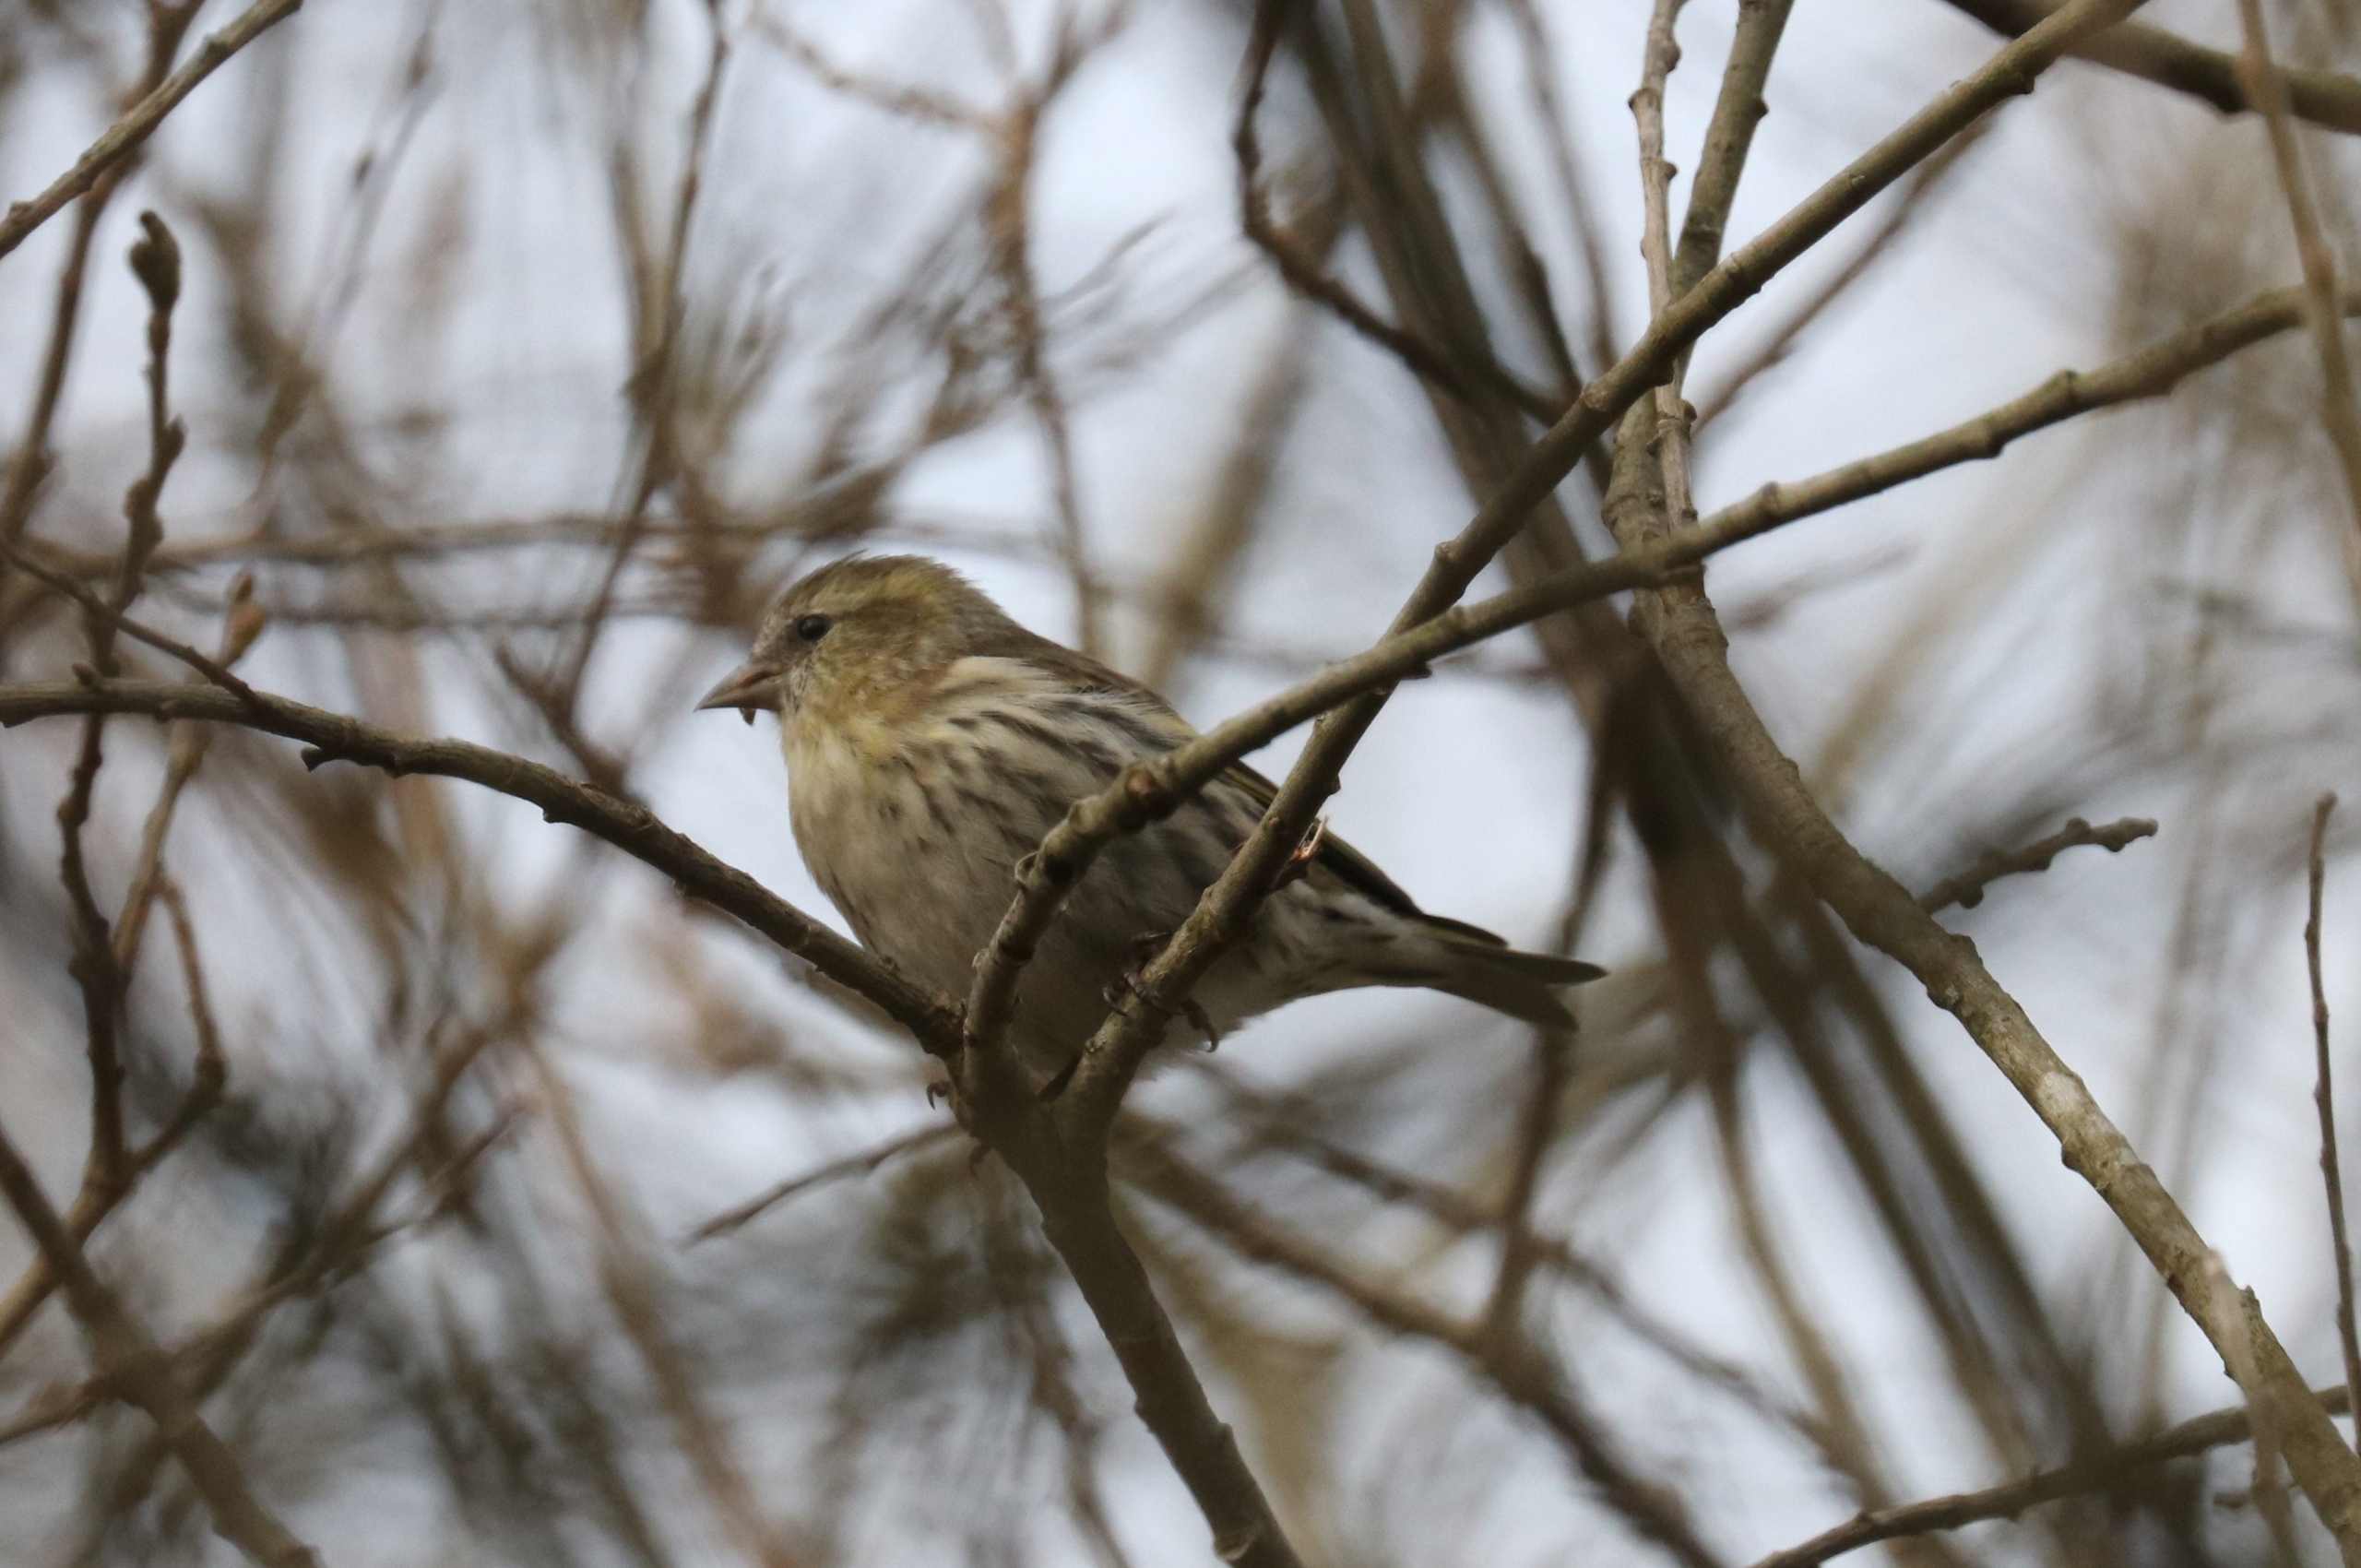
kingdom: Animalia
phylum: Chordata
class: Aves
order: Passeriformes
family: Fringillidae
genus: Spinus
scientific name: Spinus spinus
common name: Grønsisken
